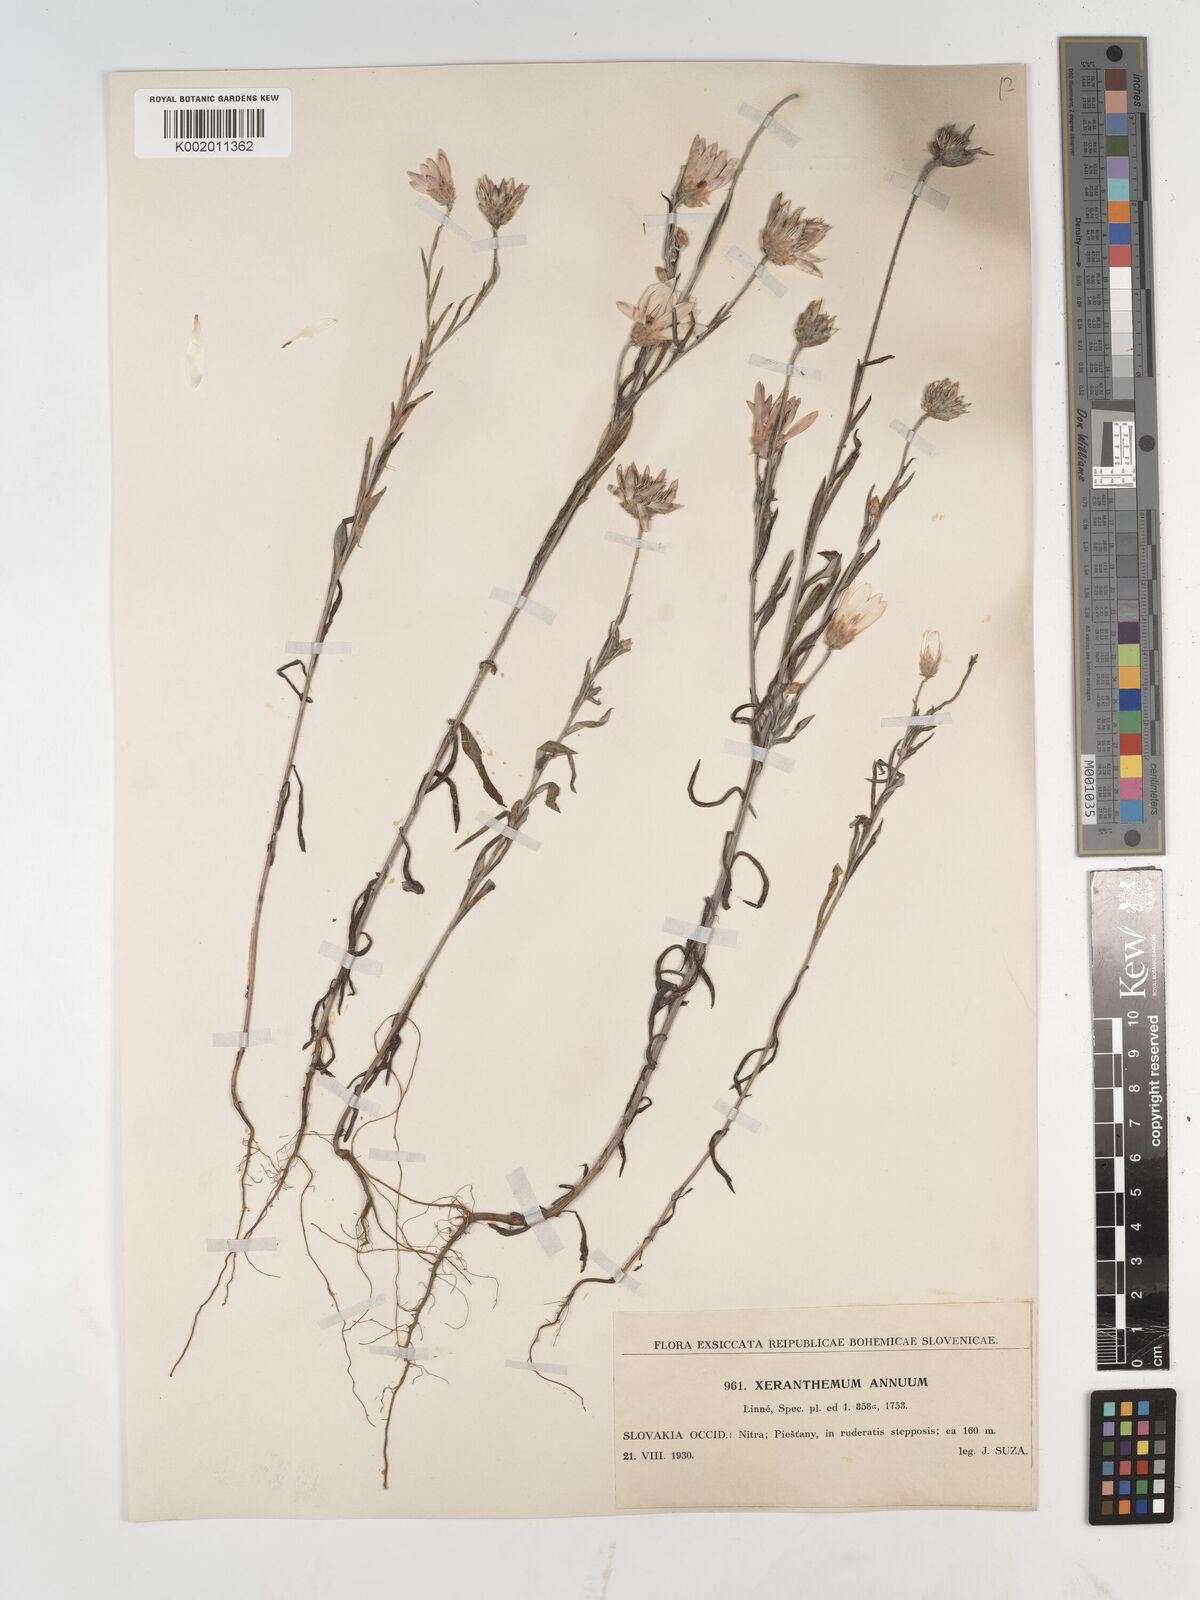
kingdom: Plantae
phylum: Tracheophyta
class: Magnoliopsida
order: Asterales
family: Asteraceae
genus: Xeranthemum
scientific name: Xeranthemum annuum
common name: Immortelle
